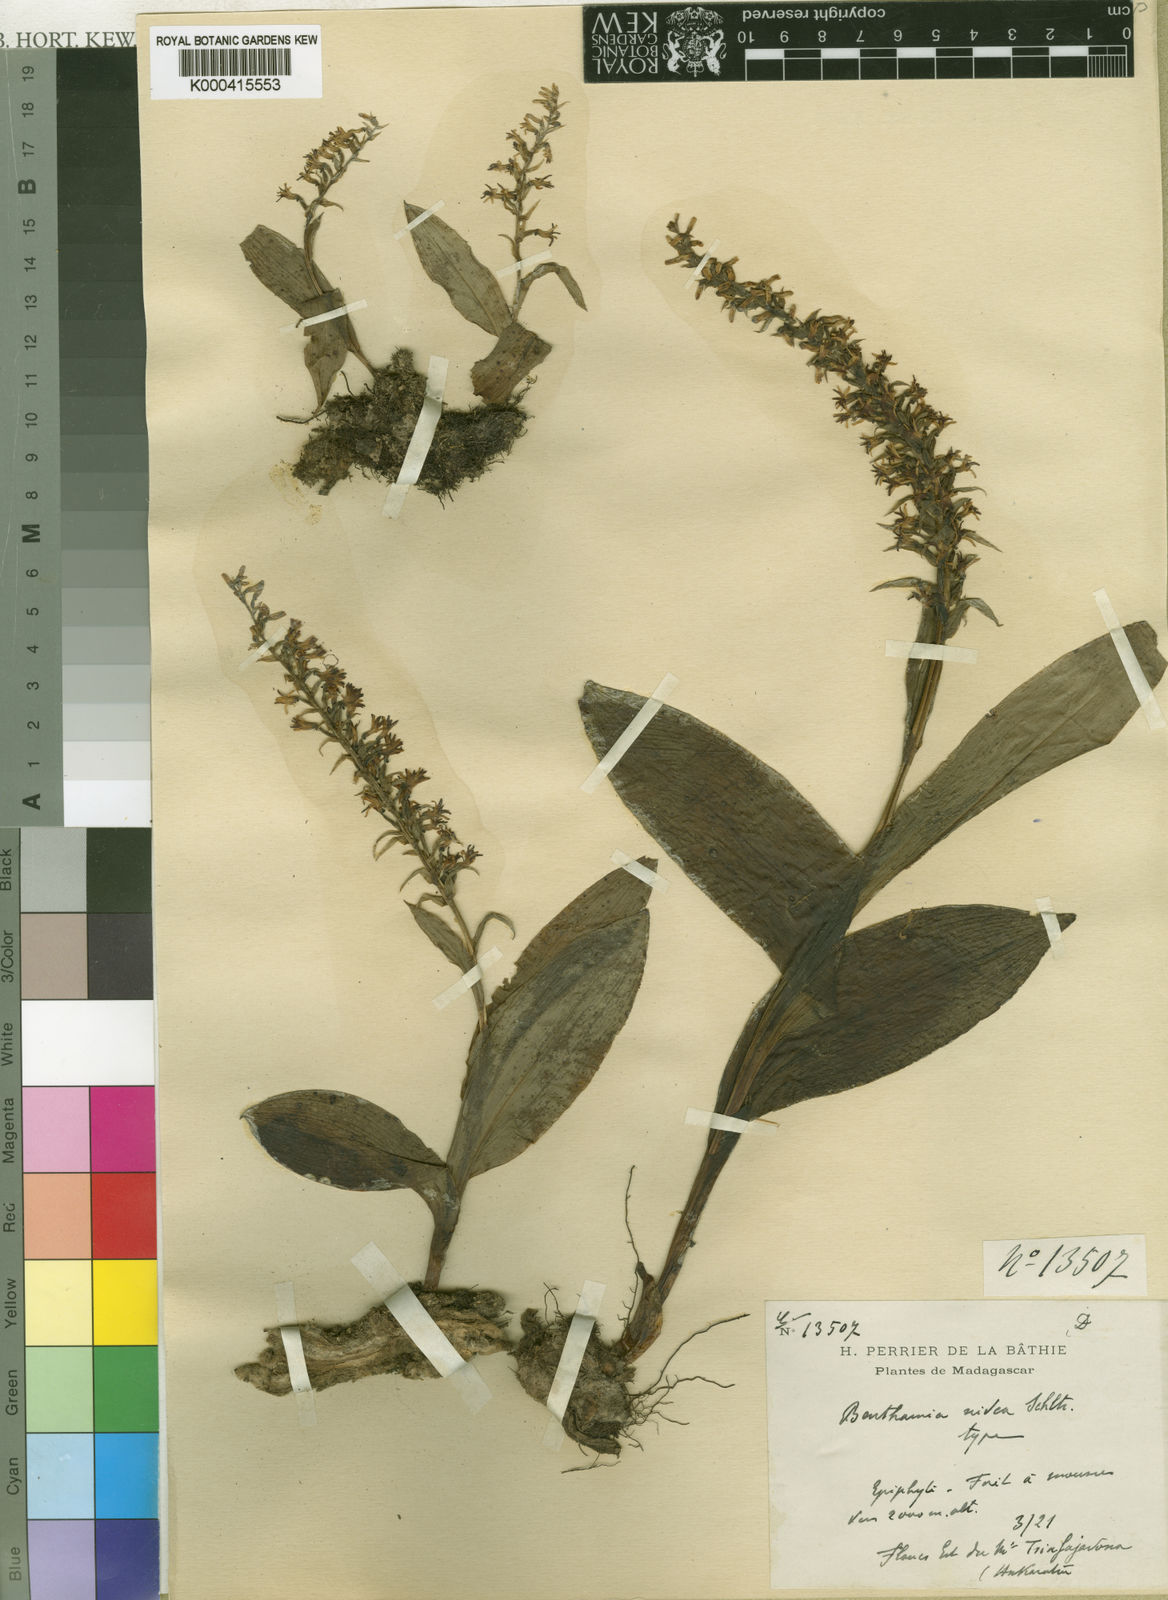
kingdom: Plantae
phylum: Tracheophyta
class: Liliopsida
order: Asparagales
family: Orchidaceae
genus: Benthamia
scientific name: Benthamia nivea
